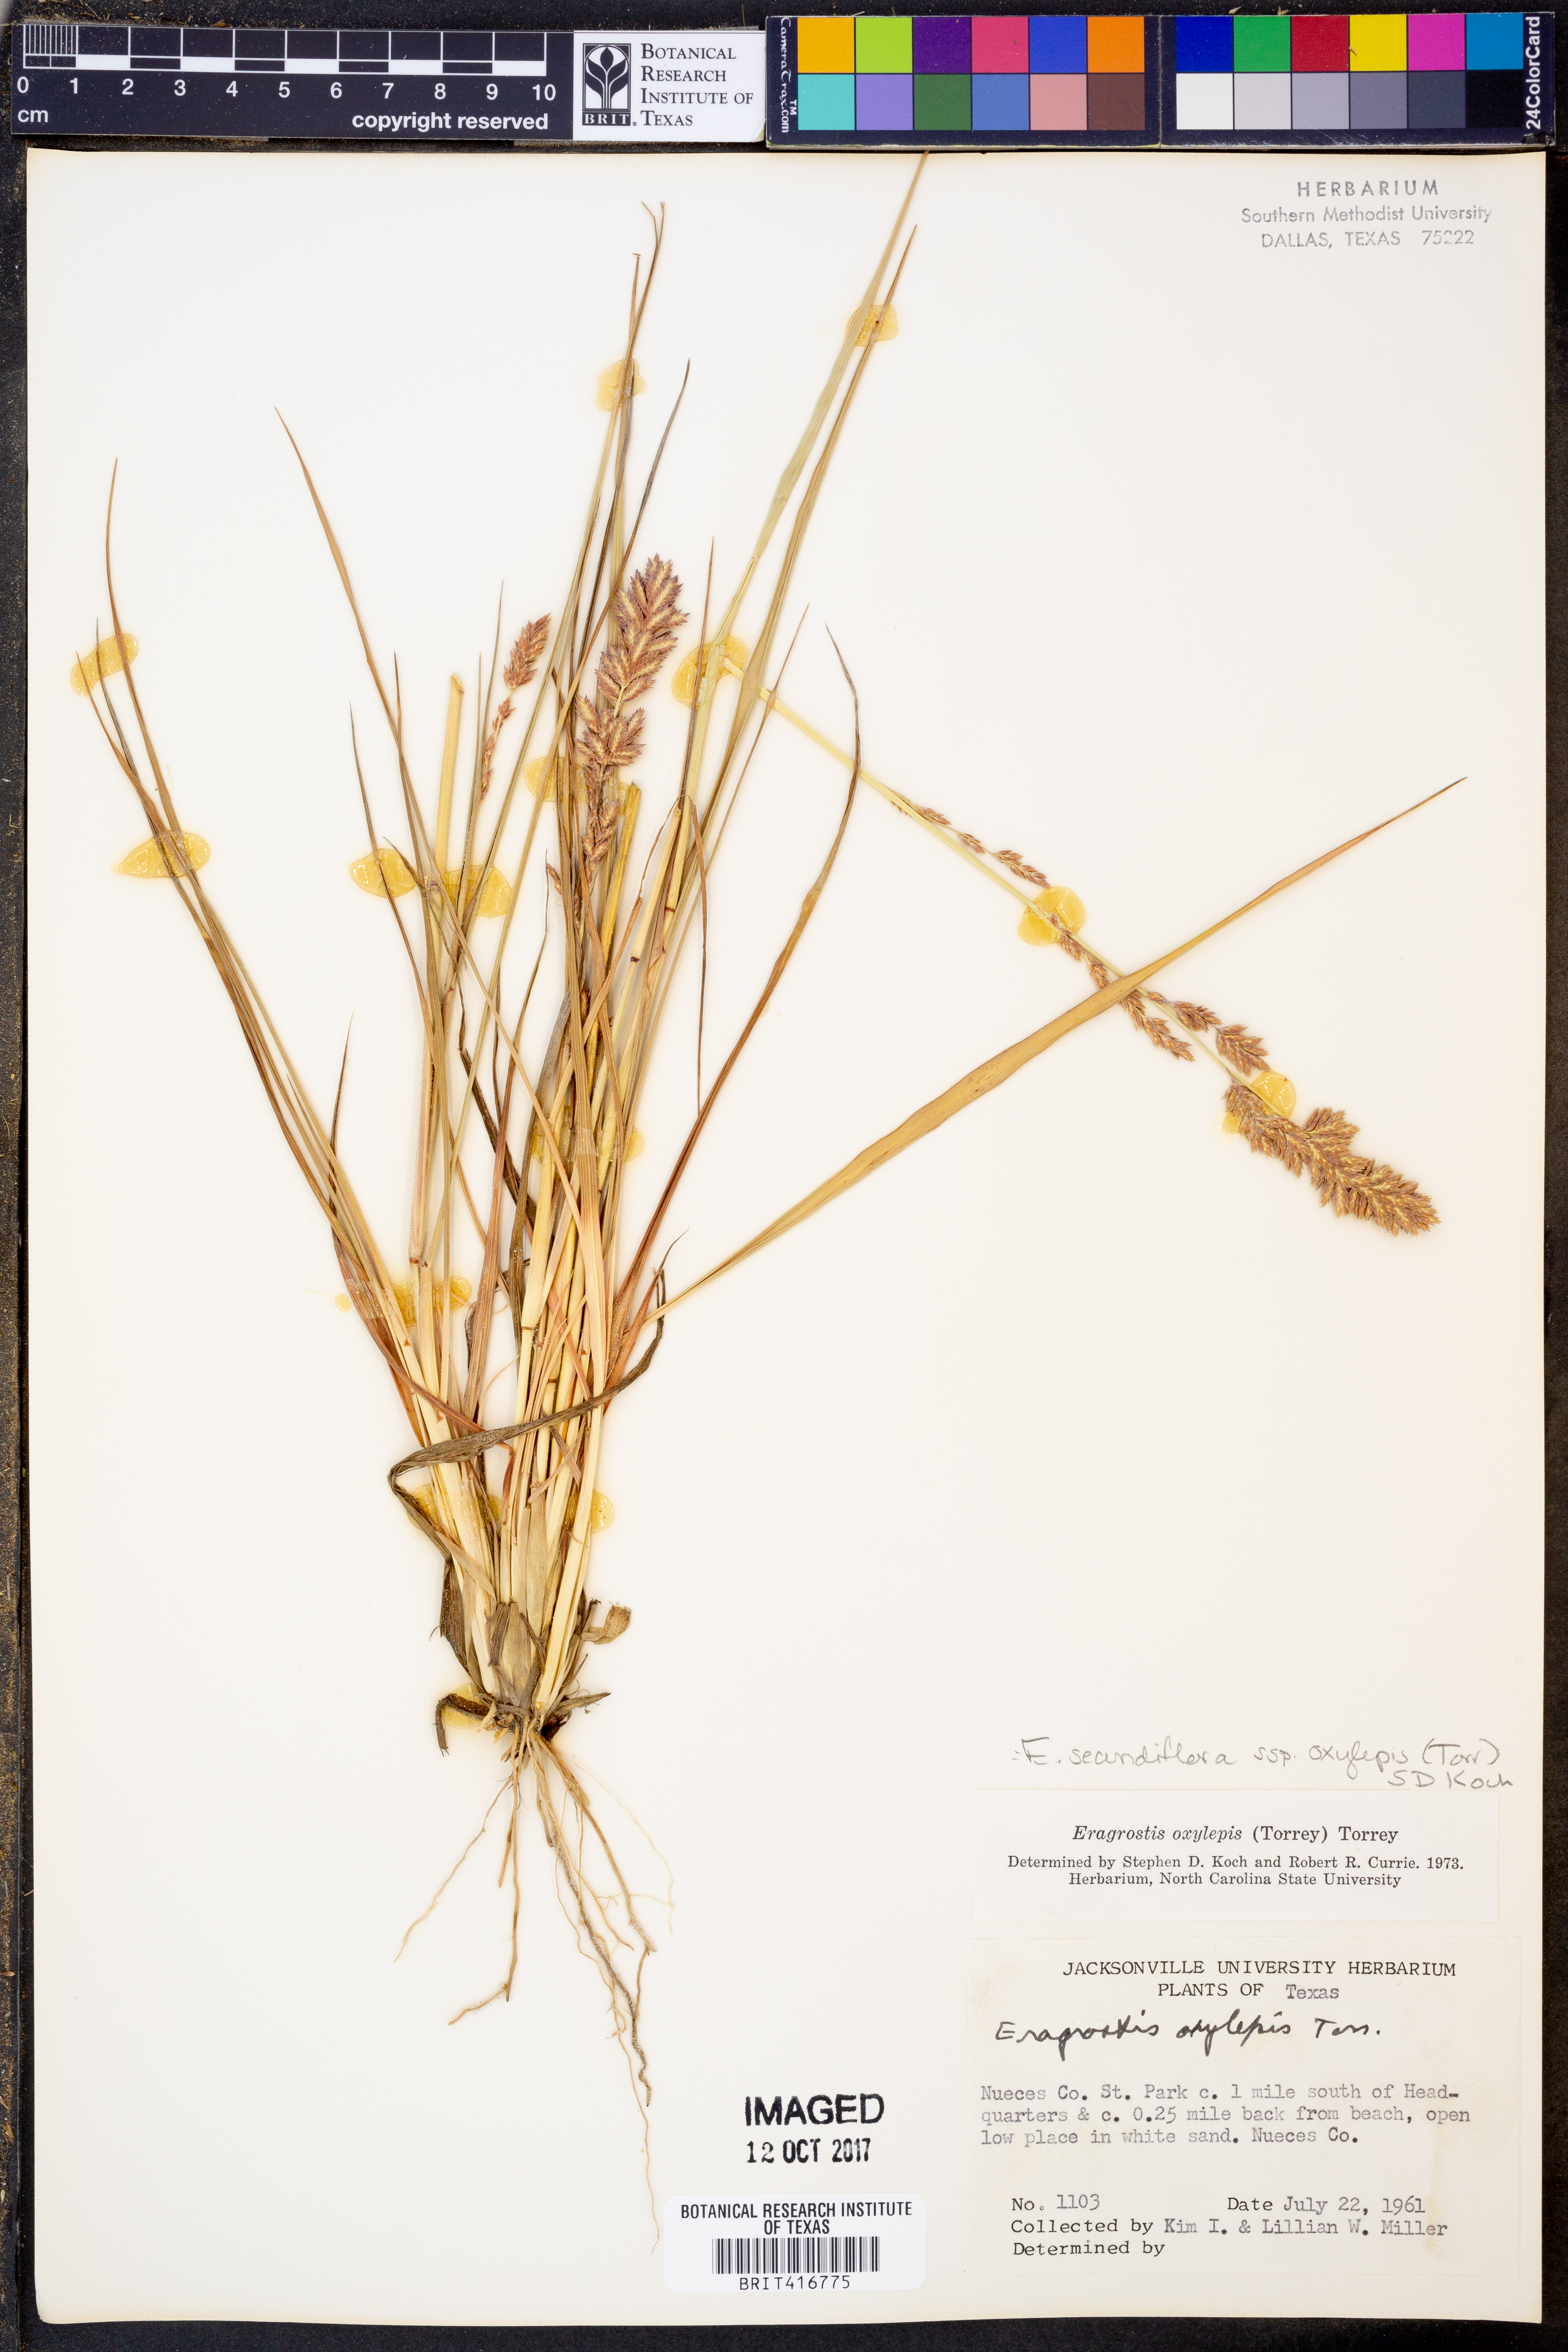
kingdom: Plantae
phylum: Tracheophyta
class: Liliopsida
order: Poales
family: Poaceae
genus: Eragrostis
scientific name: Eragrostis secundiflora
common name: Red love grass
